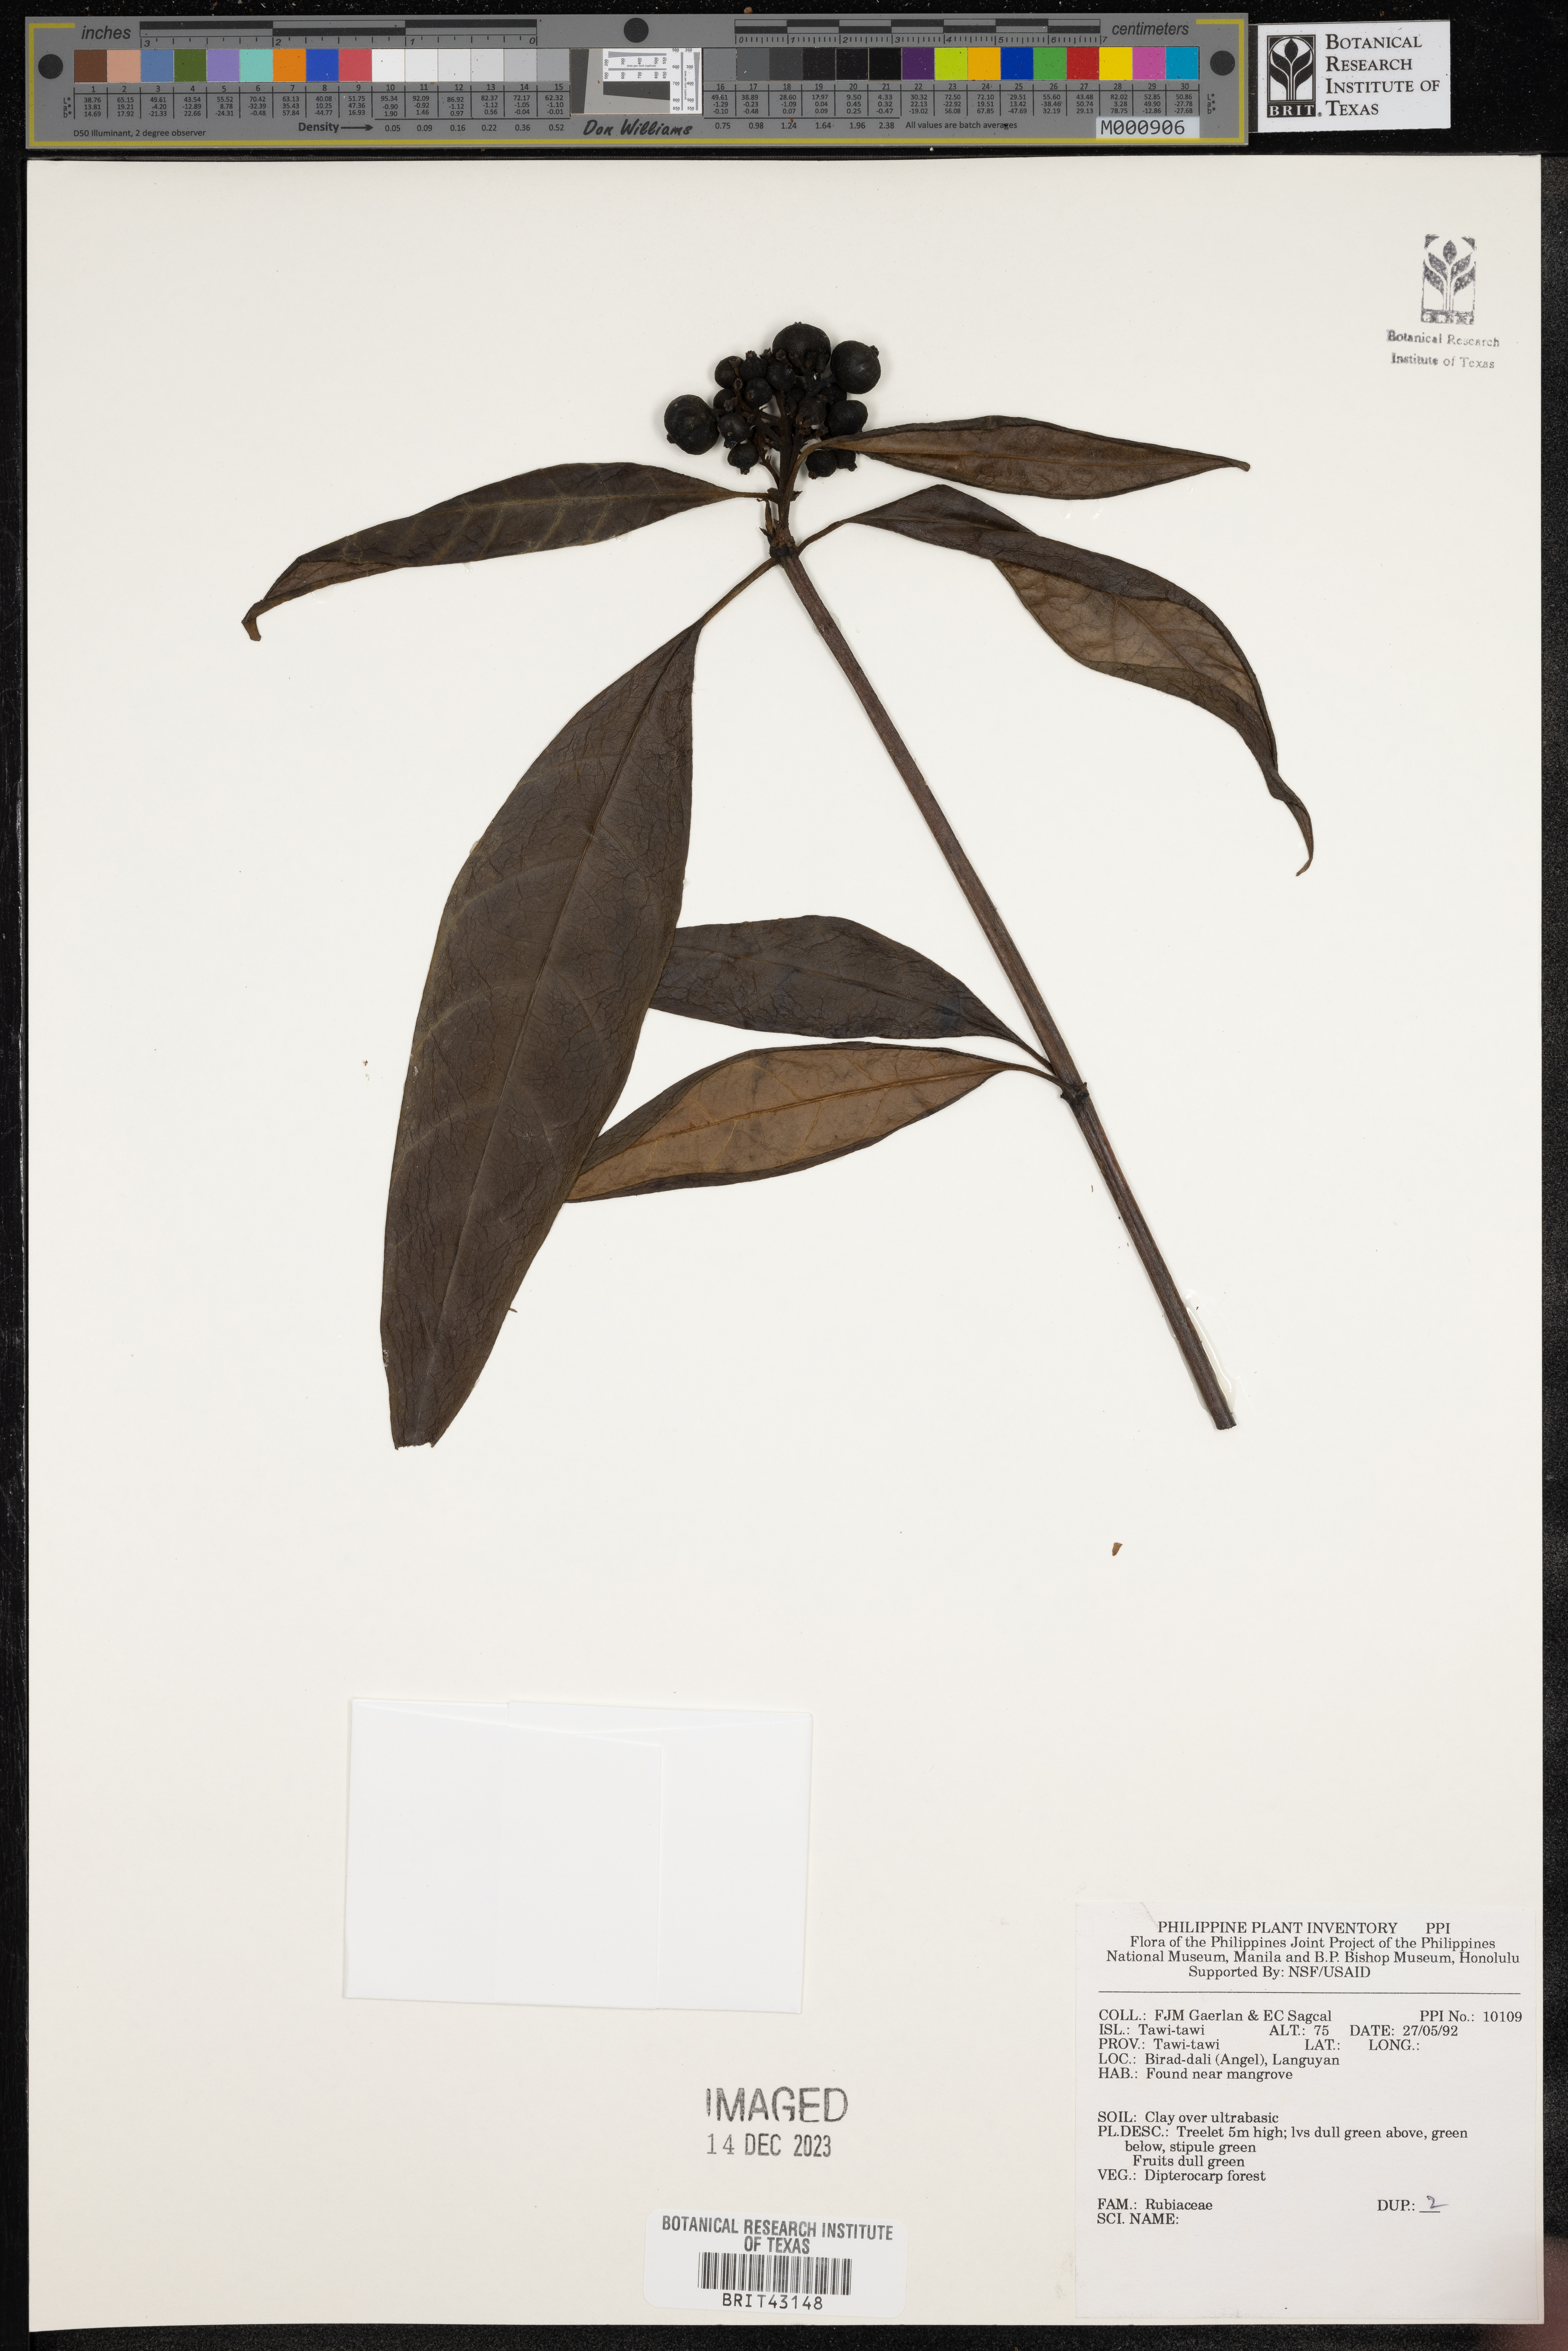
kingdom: Plantae
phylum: Tracheophyta
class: Magnoliopsida
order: Gentianales
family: Rubiaceae
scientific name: Rubiaceae
